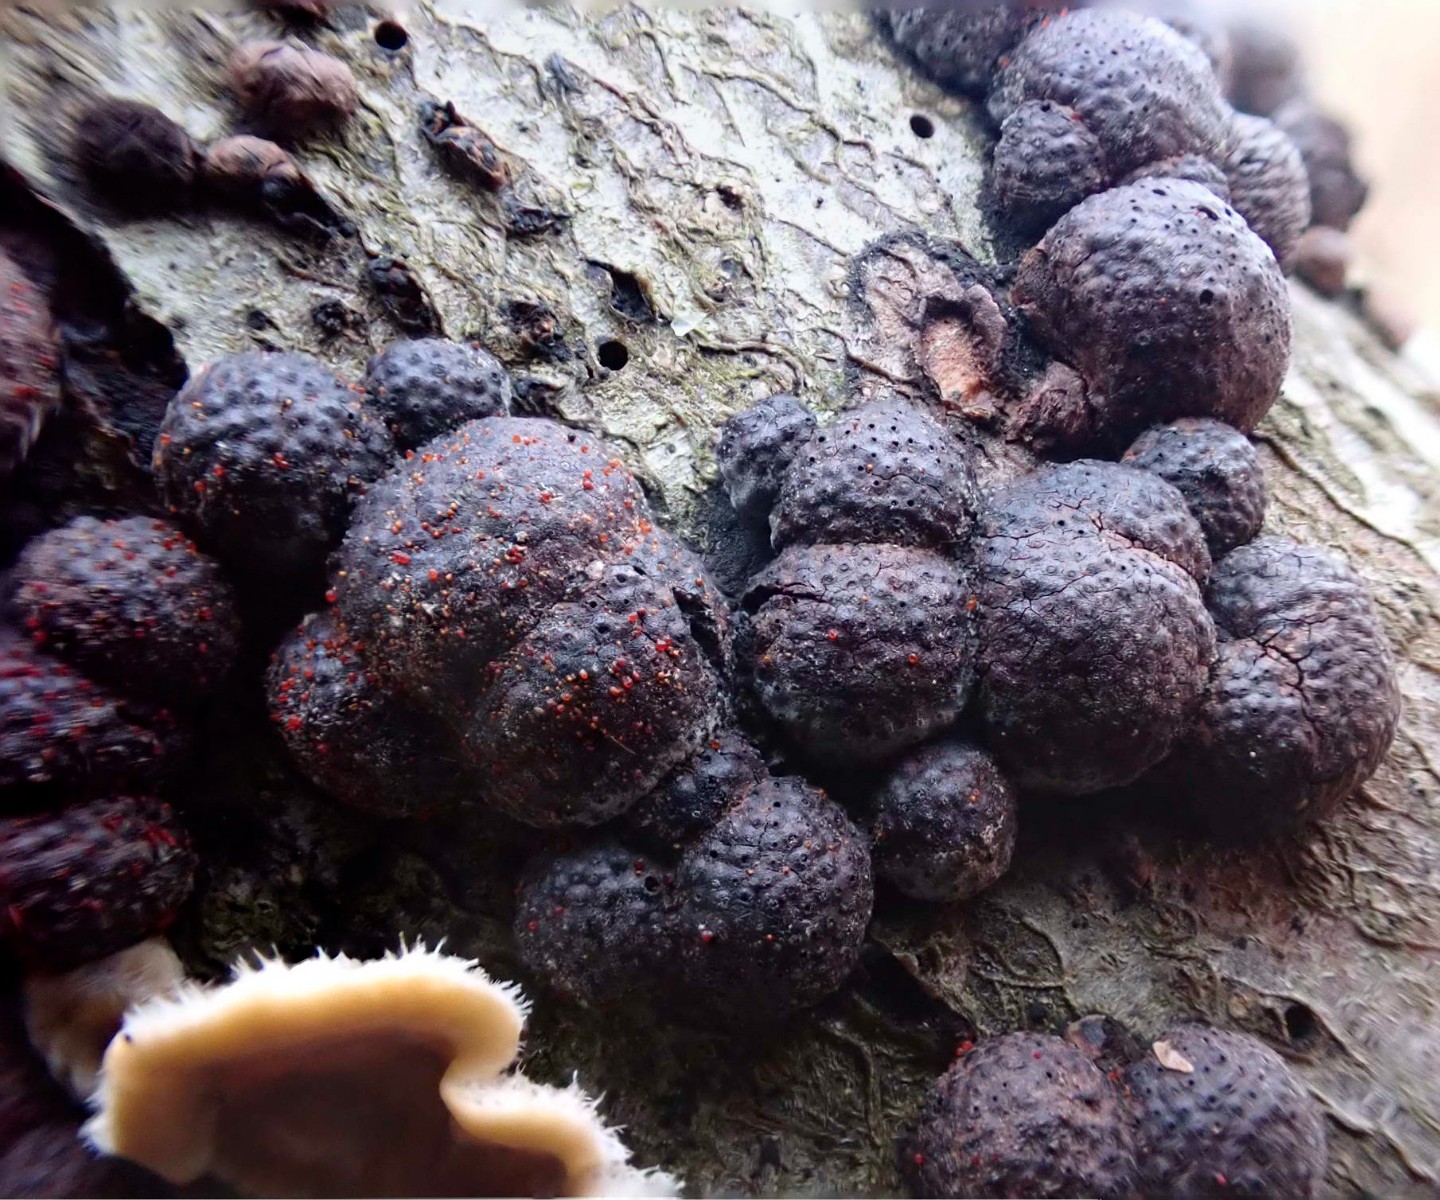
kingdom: Fungi
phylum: Ascomycota
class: Sordariomycetes
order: Hypocreales
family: Nectriaceae
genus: Cosmospora
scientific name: Cosmospora arxii
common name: kuljordbær-cinnobersvamp
